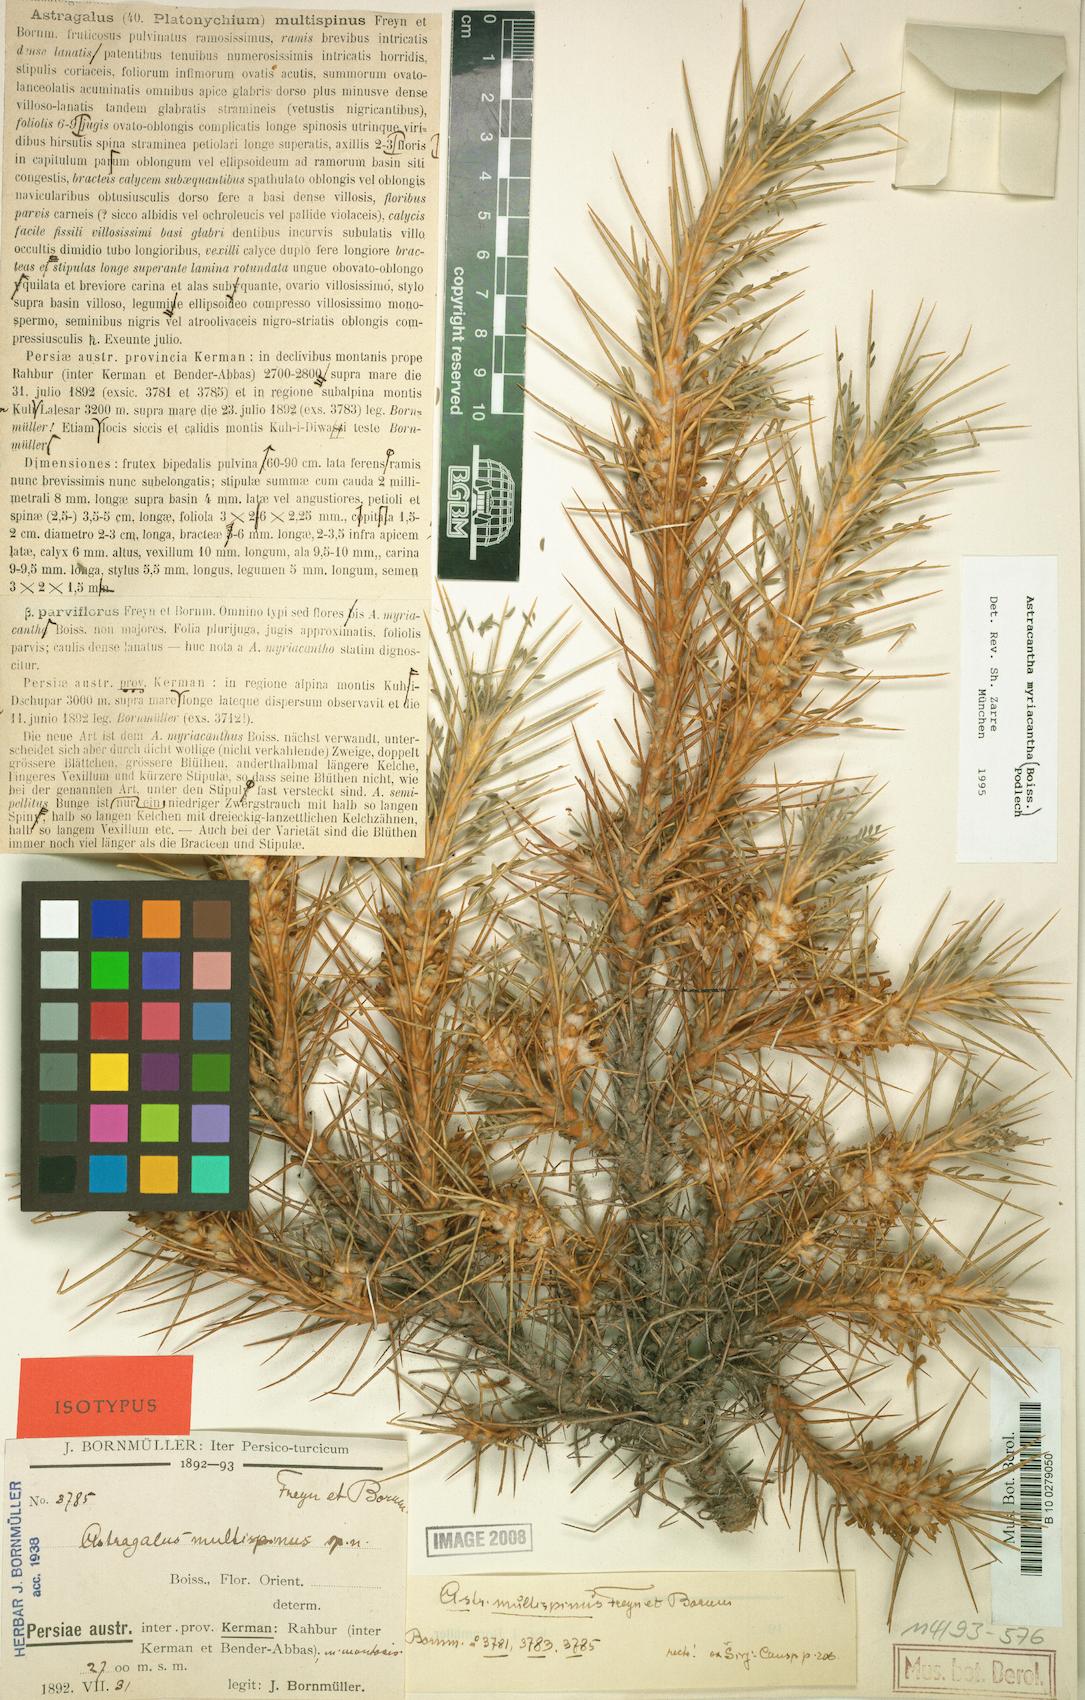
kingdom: Plantae
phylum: Tracheophyta
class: Magnoliopsida
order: Fabales
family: Fabaceae
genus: Astragalus
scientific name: Astragalus myriacanthus
